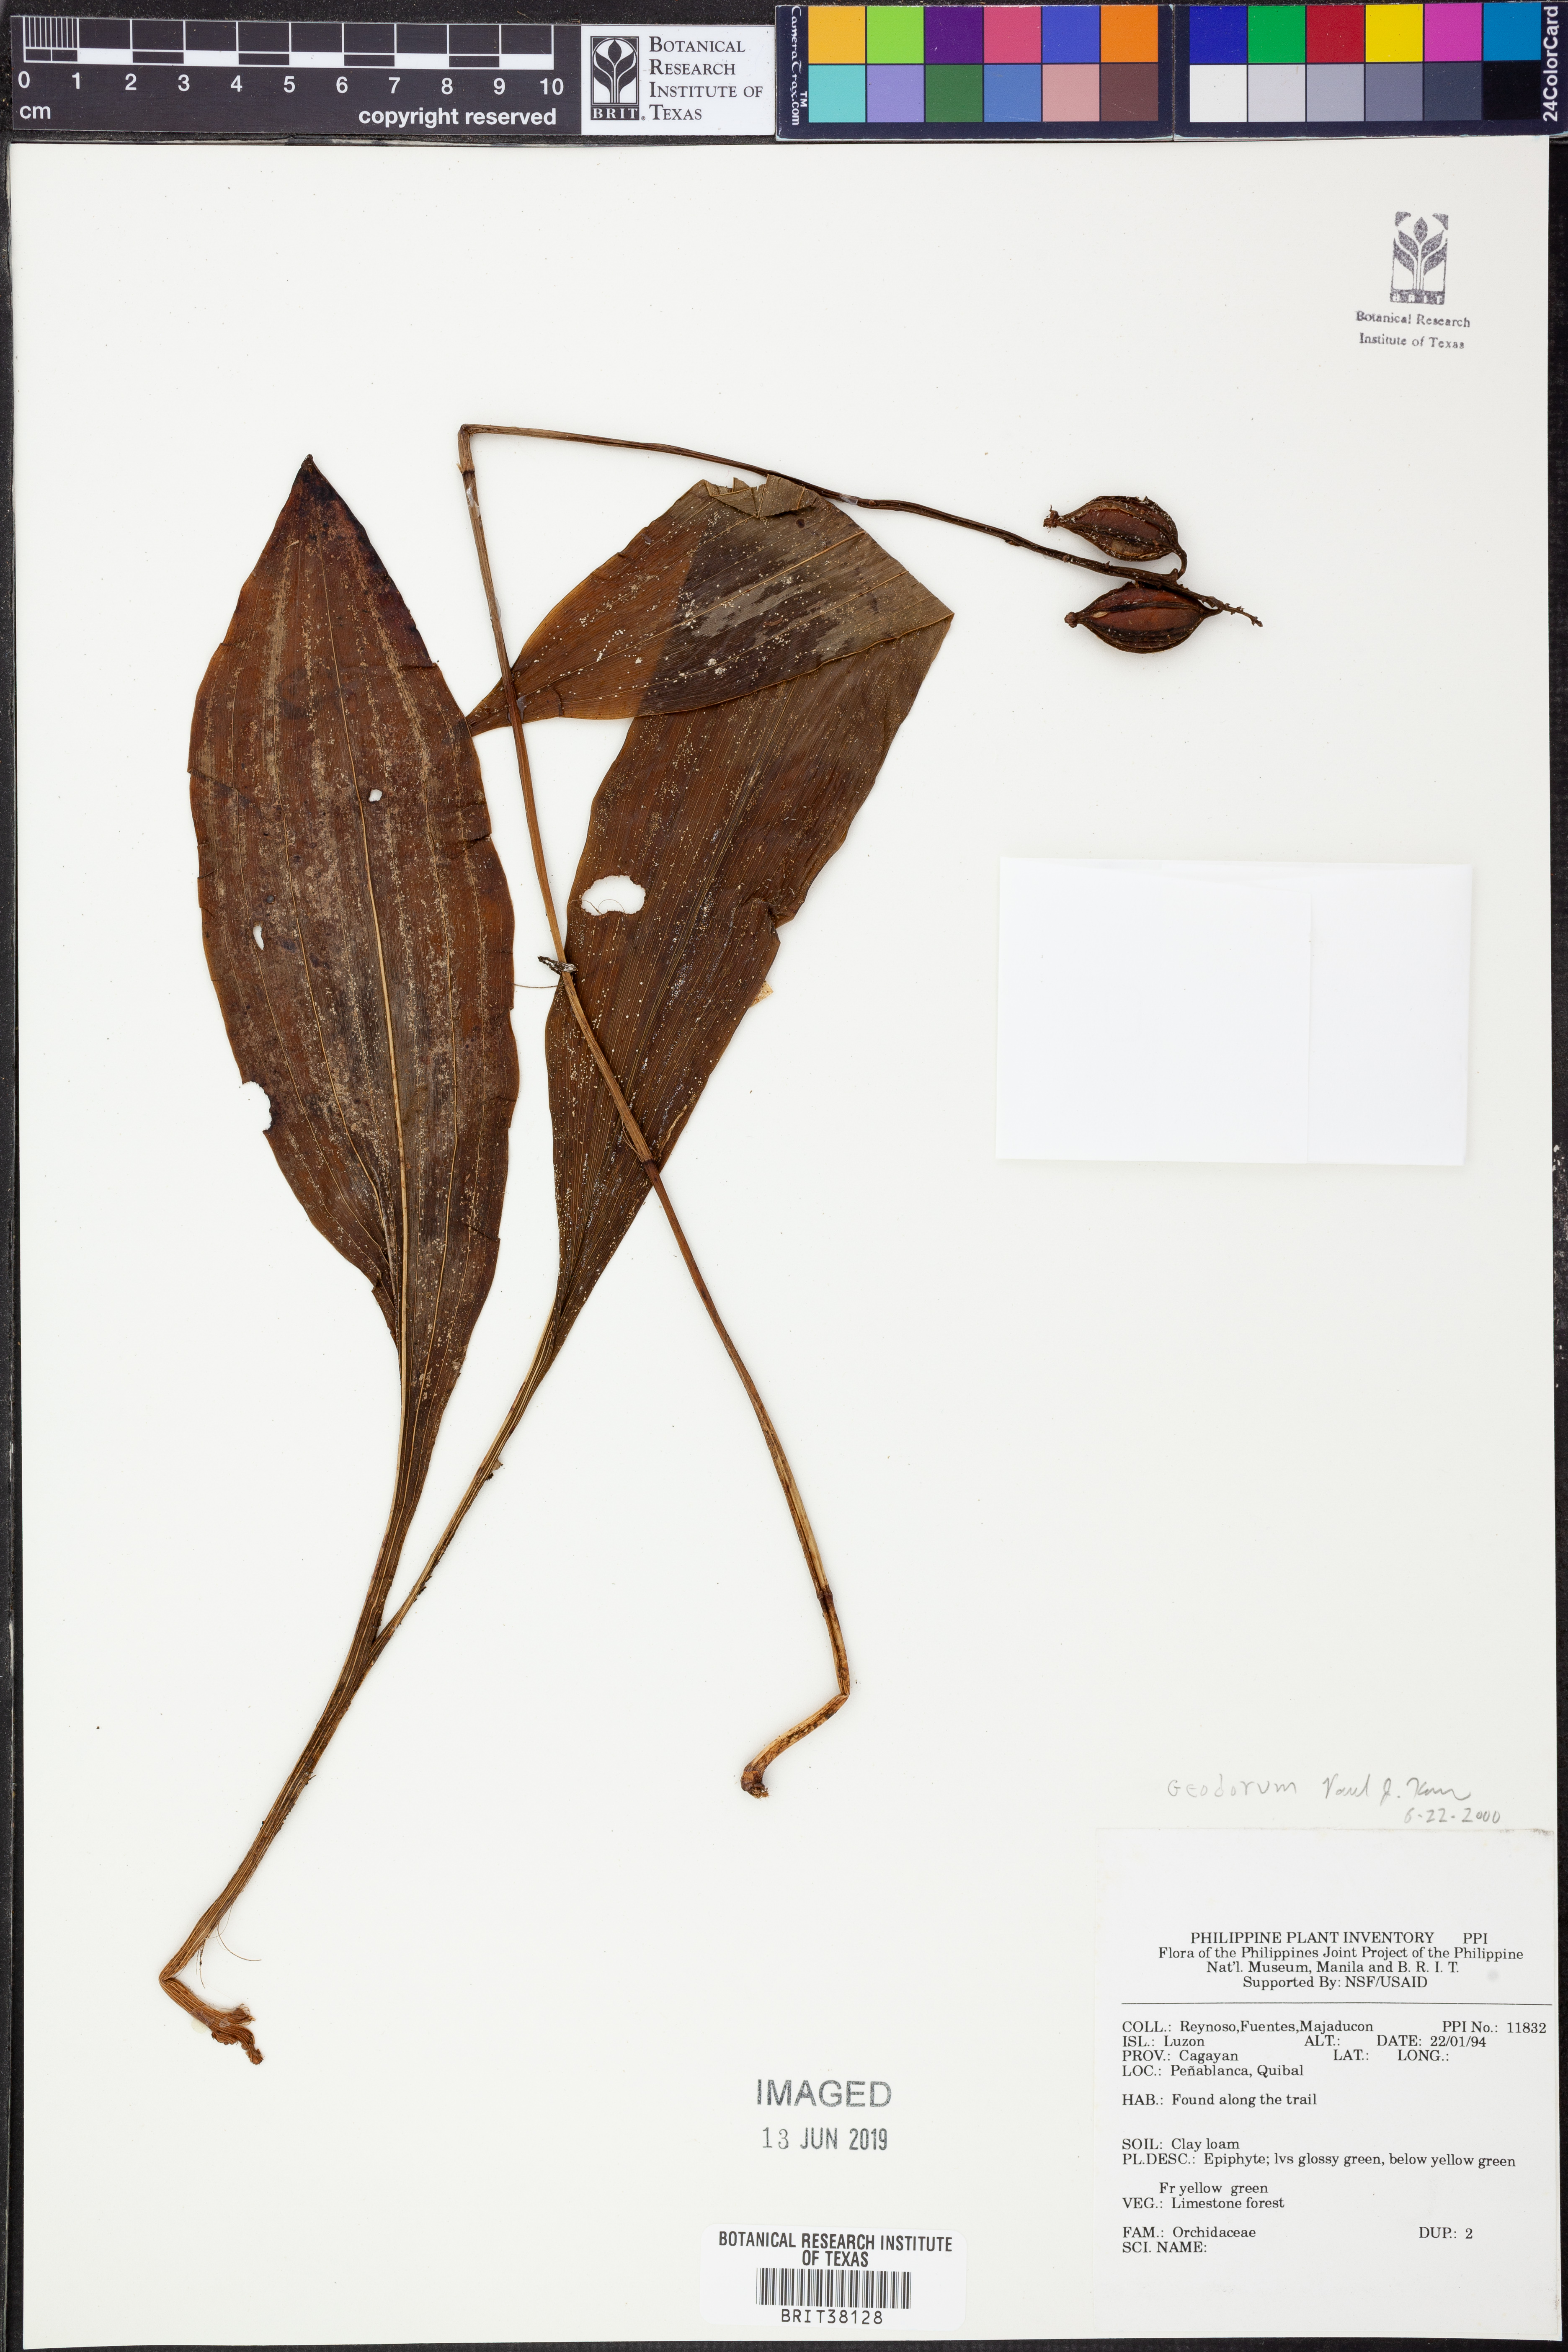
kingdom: Plantae
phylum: Tracheophyta
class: Liliopsida
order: Asparagales
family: Orchidaceae
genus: Geodorum
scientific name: Geodorum
